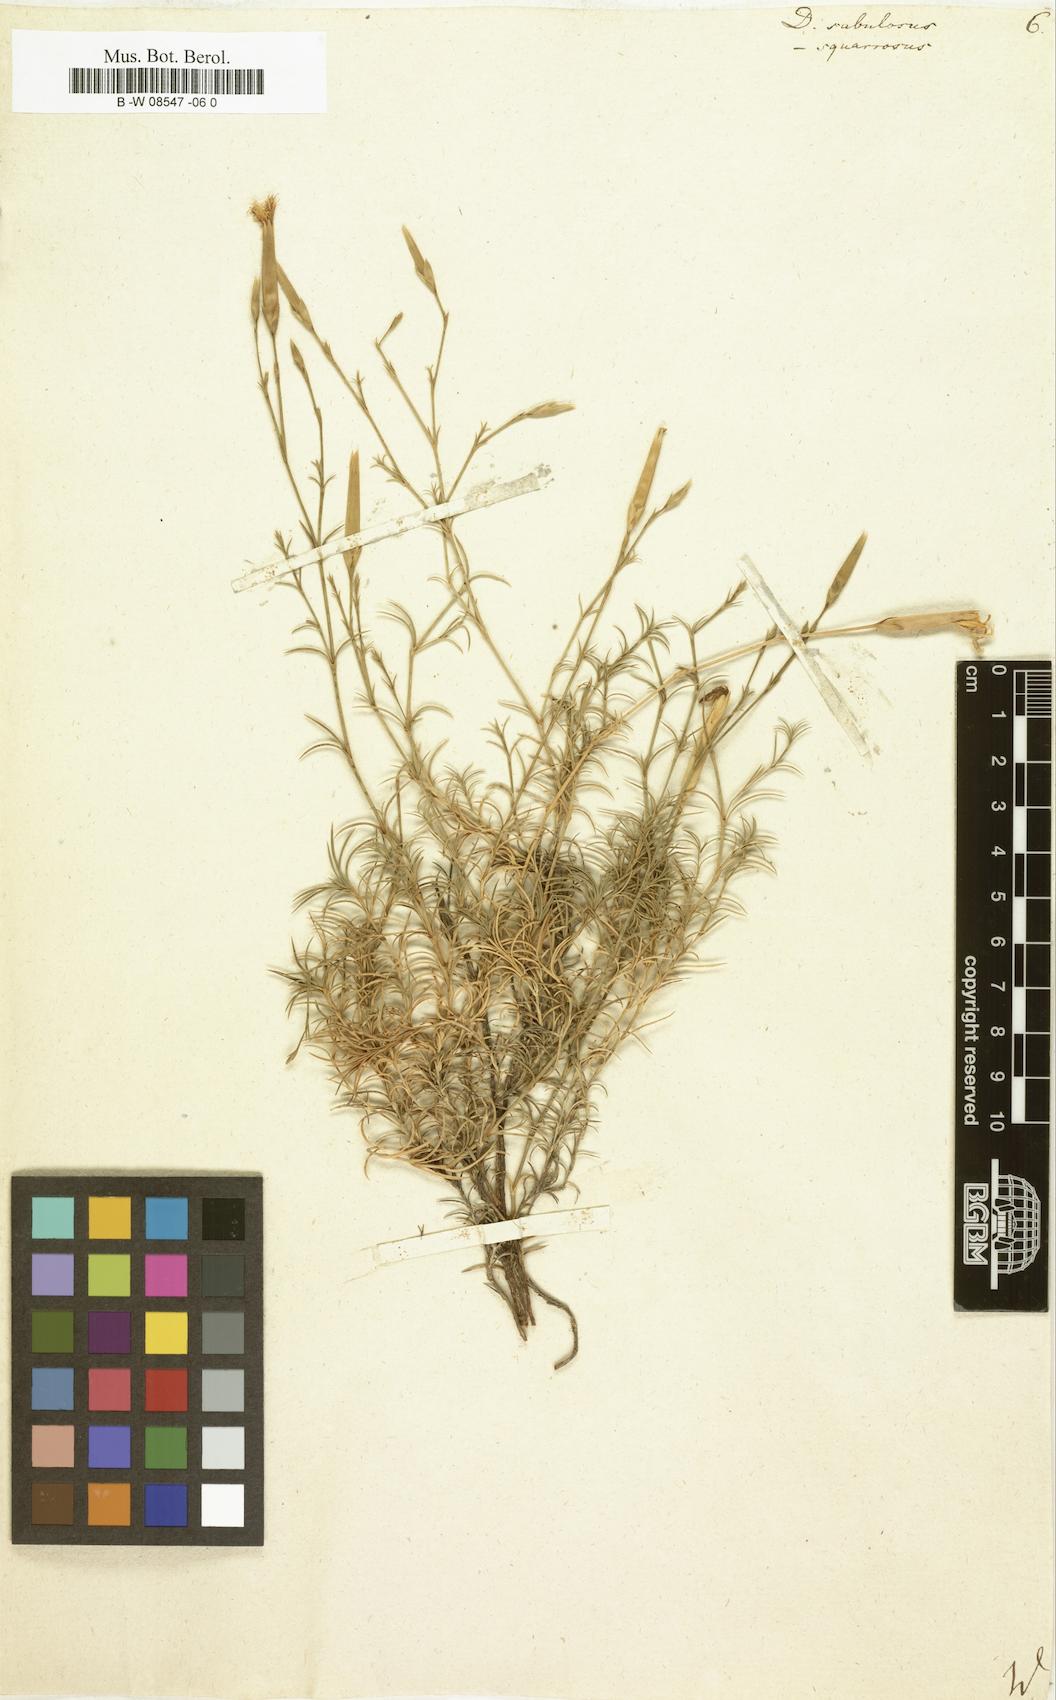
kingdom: Plantae
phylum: Tracheophyta
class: Magnoliopsida
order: Caryophyllales
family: Caryophyllaceae
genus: Dianthus
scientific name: Dianthus squarrosus
